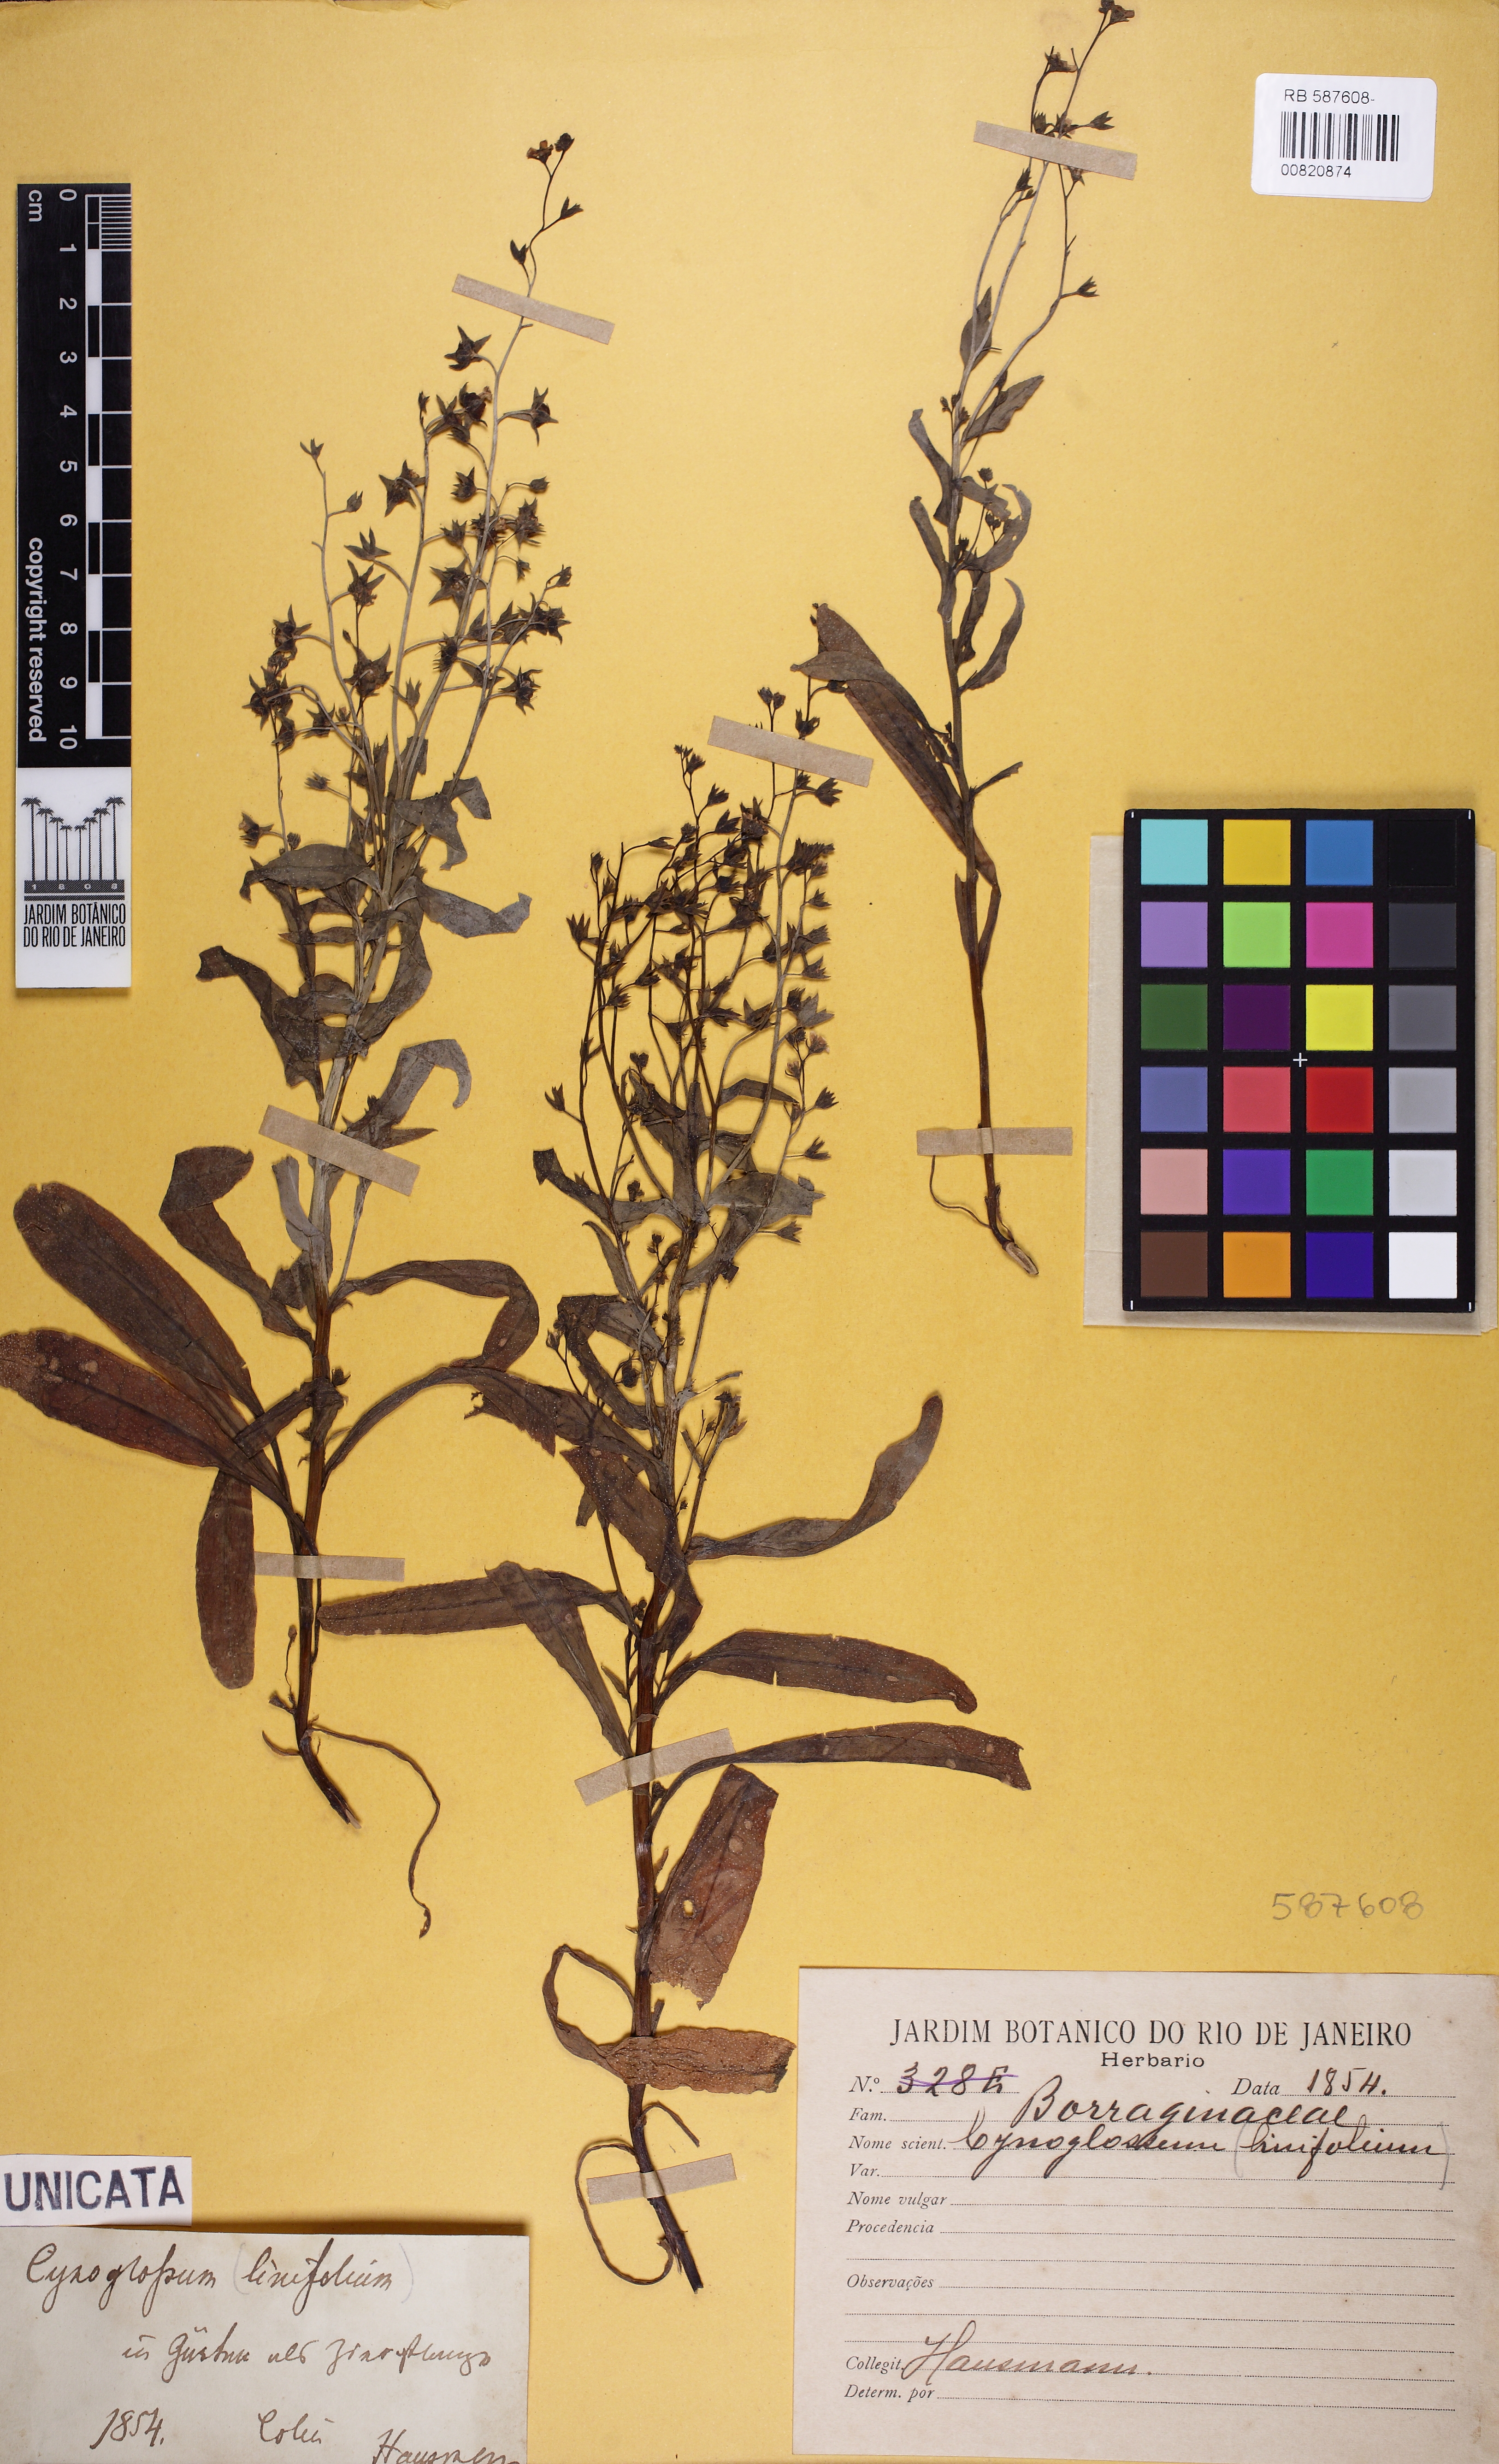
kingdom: Plantae
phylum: Tracheophyta
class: Magnoliopsida
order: Boraginales
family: Boraginaceae
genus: Cynoglossum
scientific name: Cynoglossum
